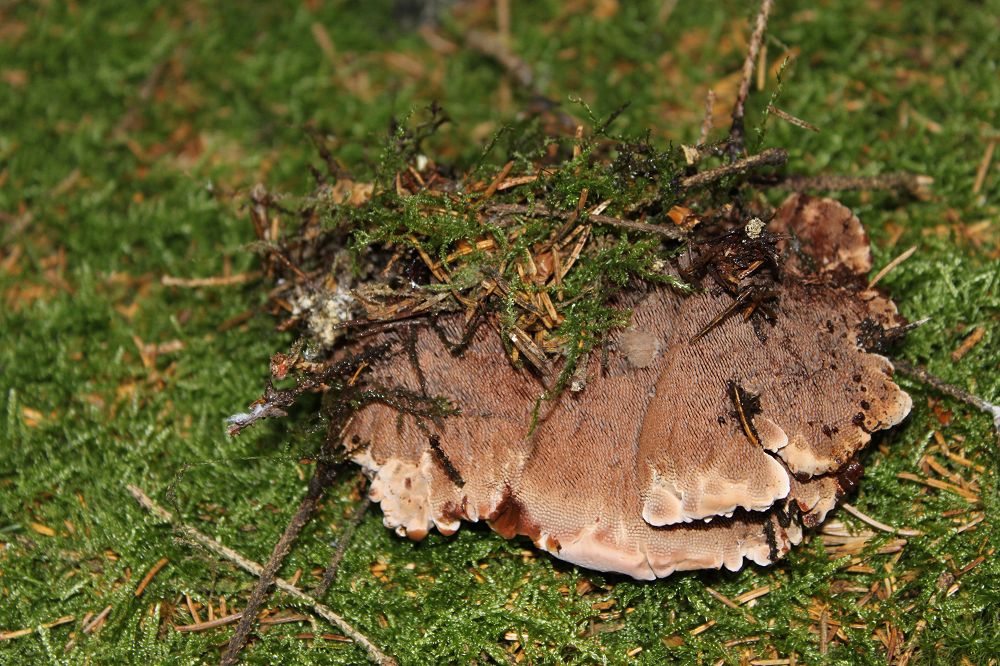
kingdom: Fungi
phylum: Basidiomycota
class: Agaricomycetes
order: Thelephorales
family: Bankeraceae
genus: Hydnellum
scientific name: Hydnellum ferrugineum
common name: rust-korkpigsvamp
